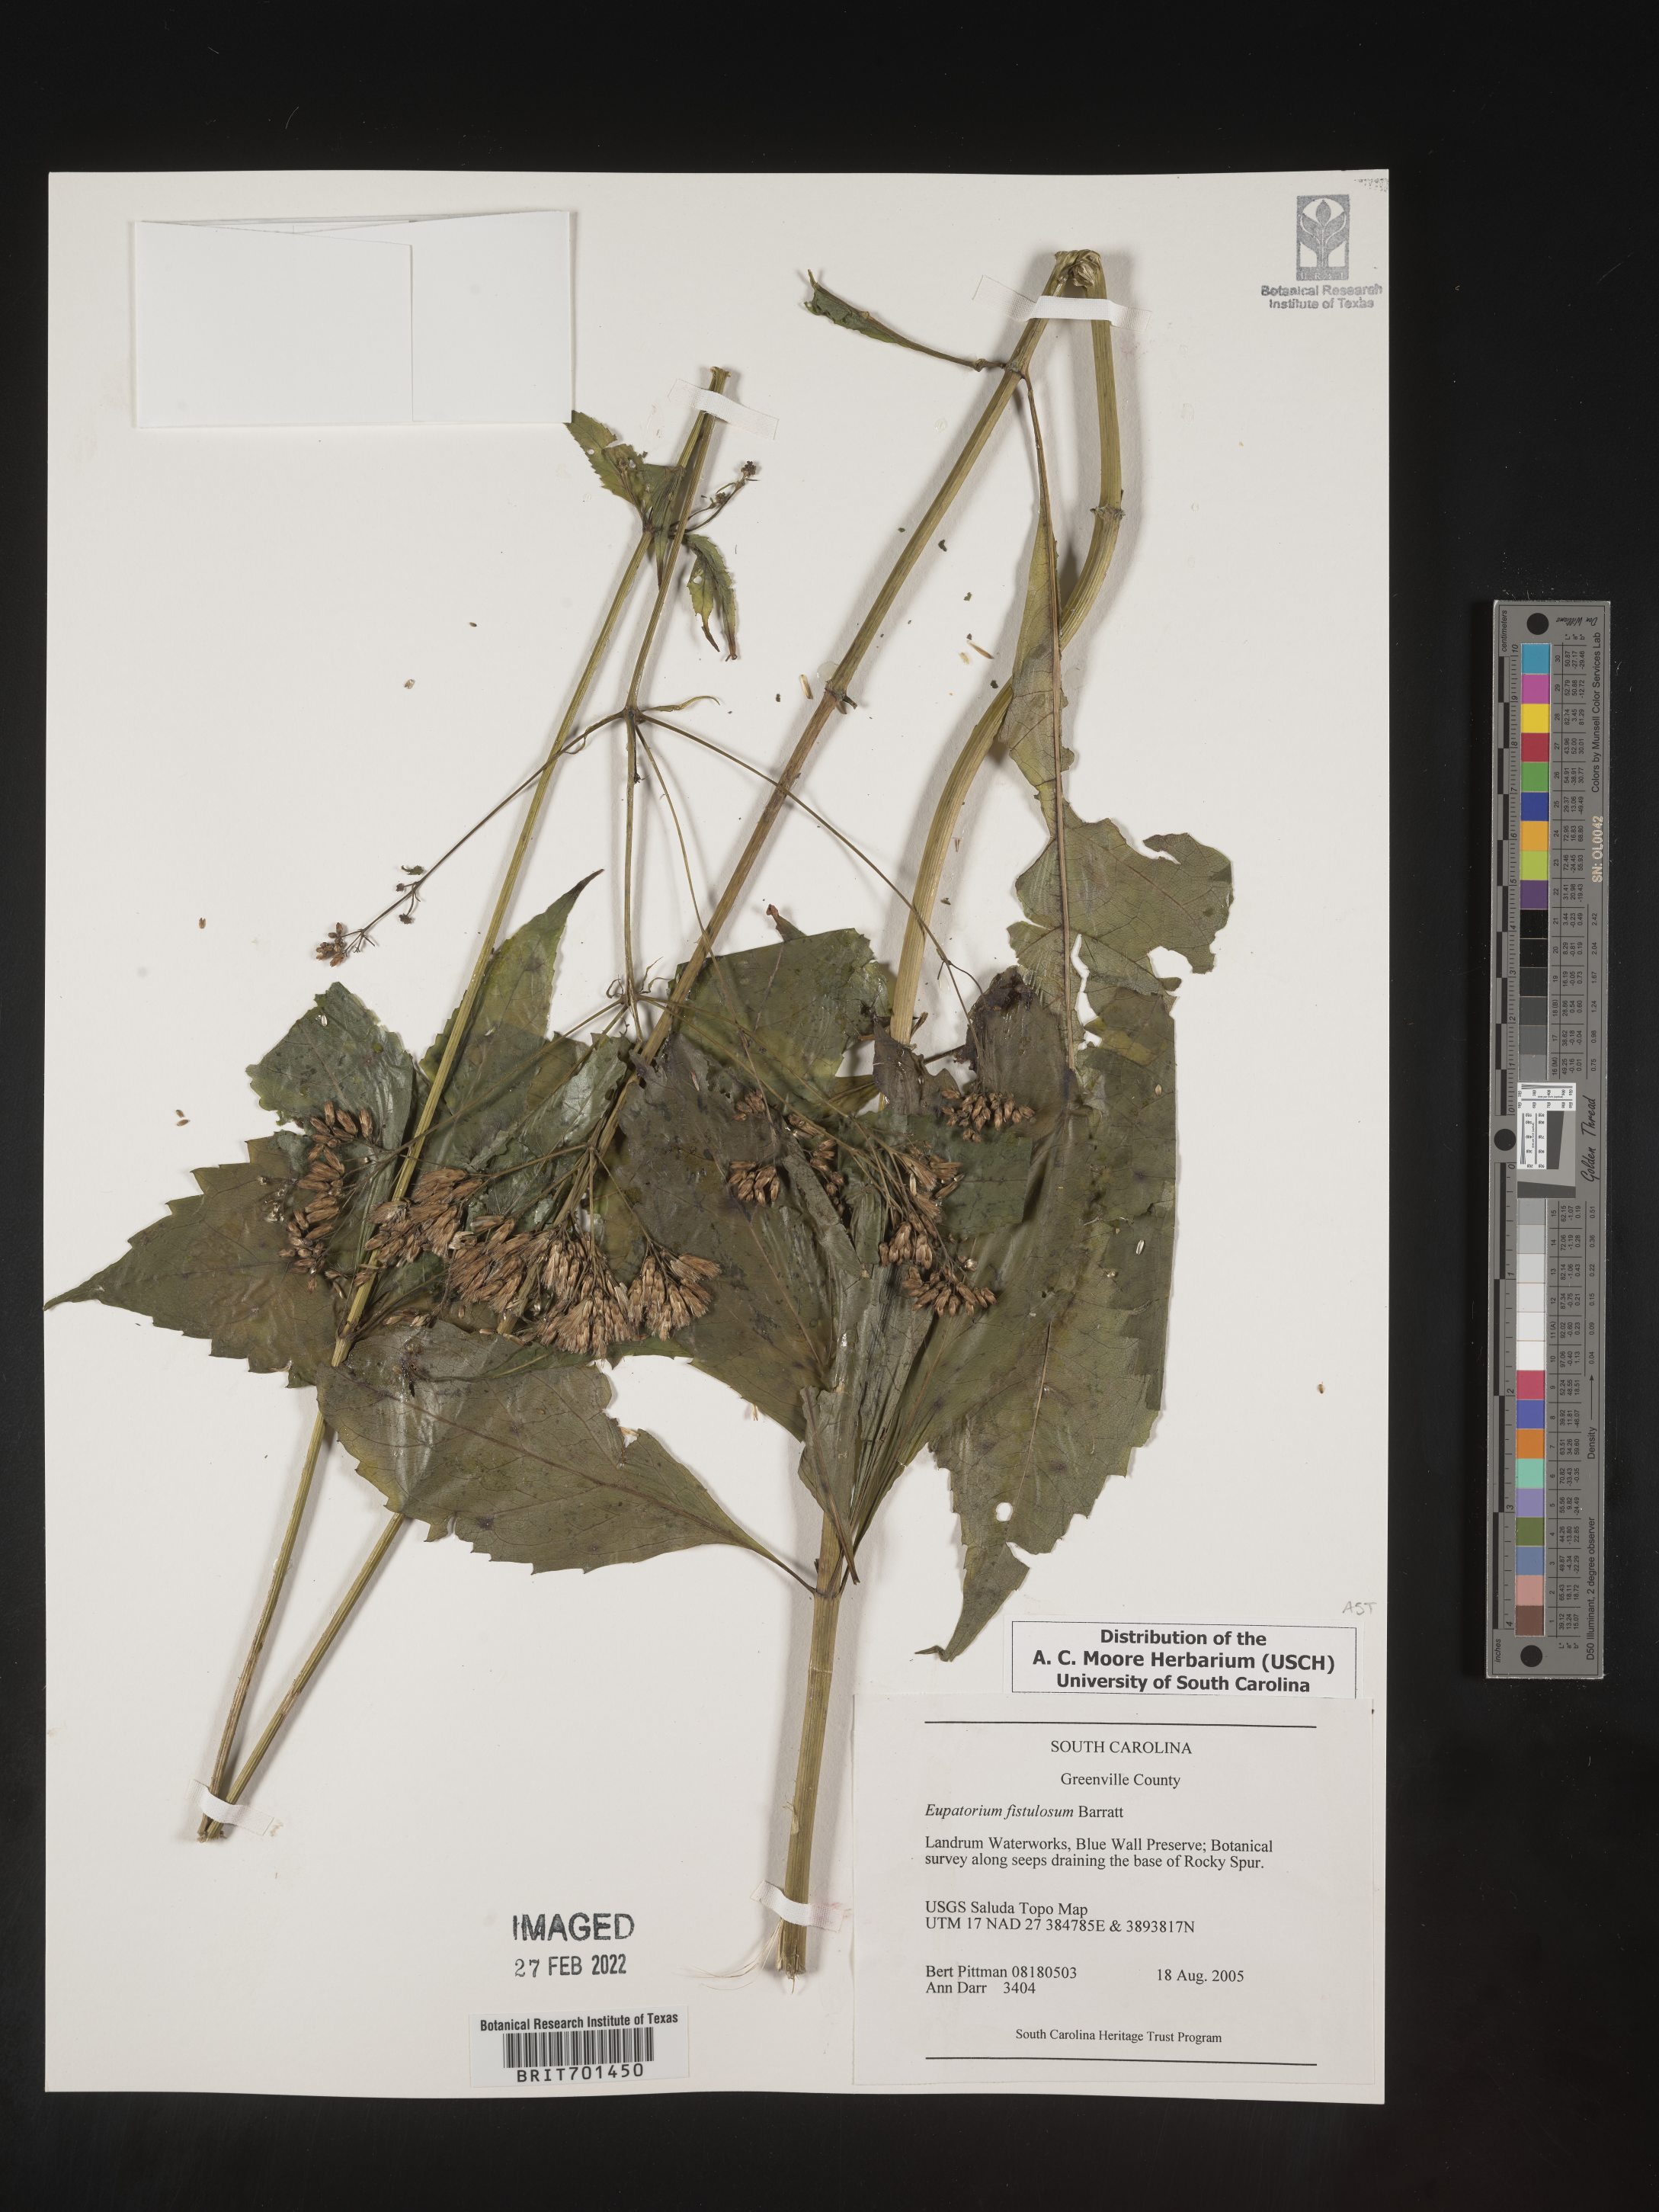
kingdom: Plantae
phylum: Tracheophyta
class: Magnoliopsida
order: Asterales
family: Asteraceae
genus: Eutrochium
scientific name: Eutrochium fistulosum
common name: Trumpetweed
